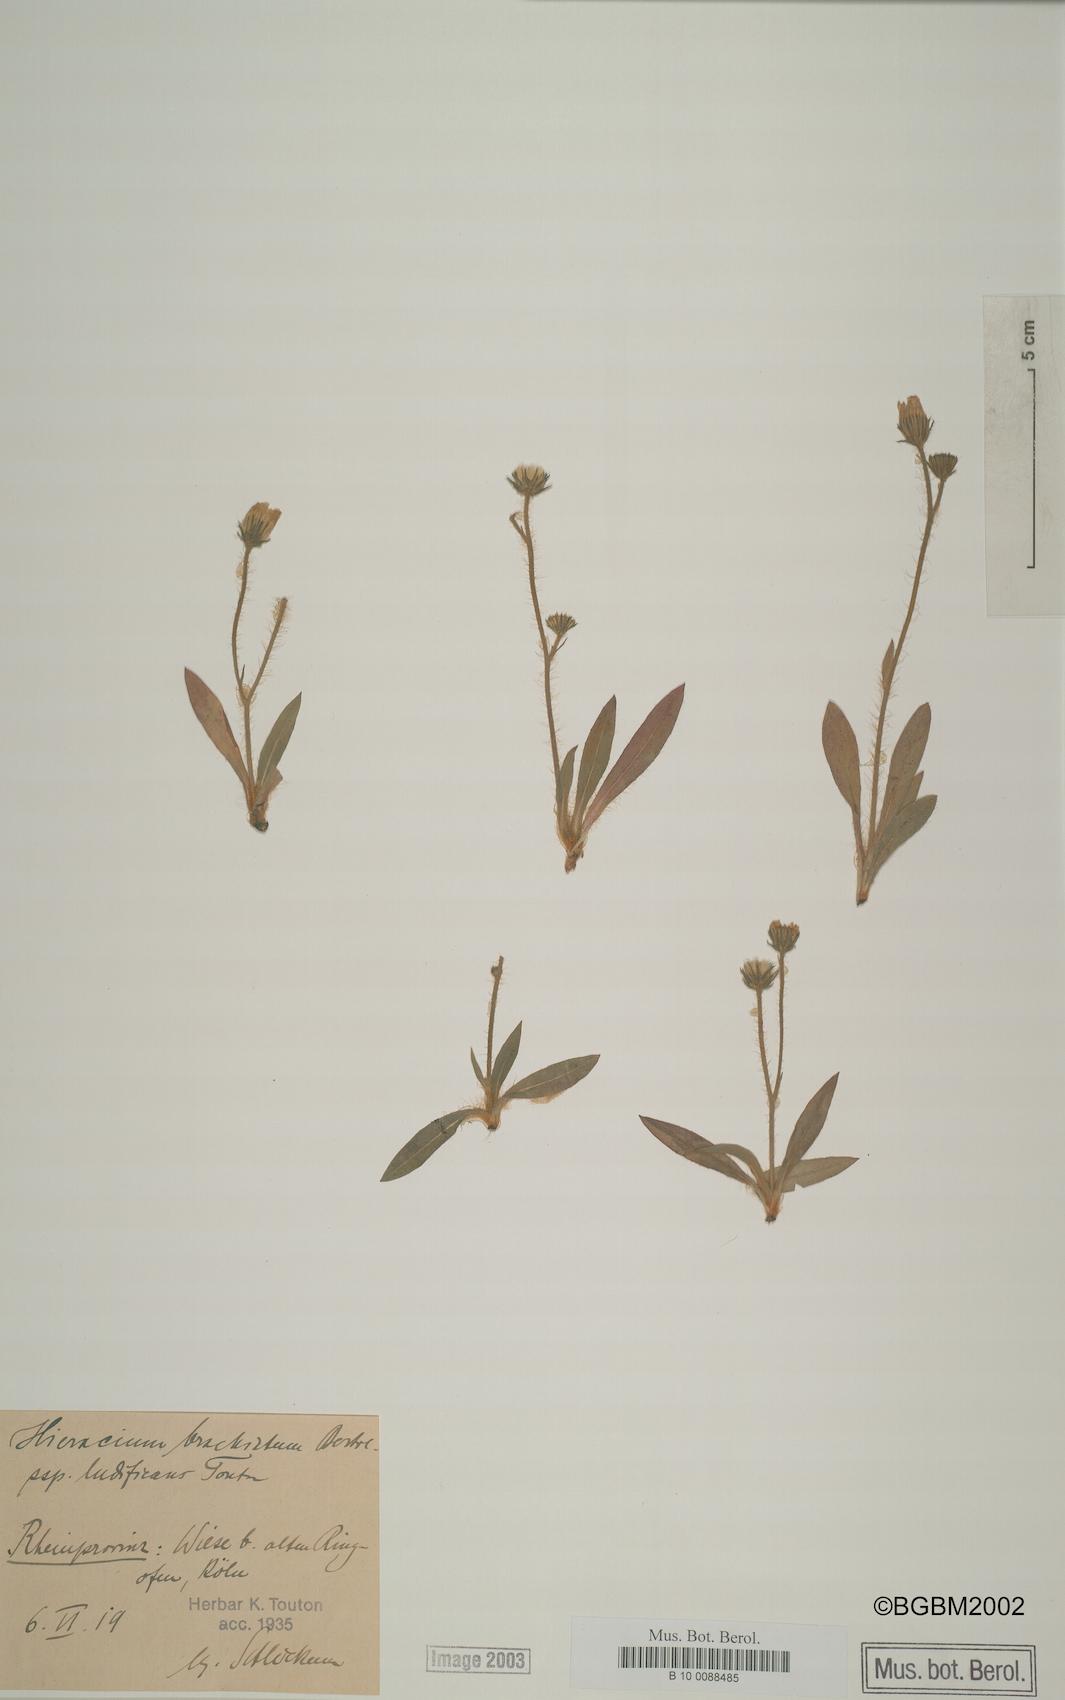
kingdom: Plantae
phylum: Tracheophyta
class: Magnoliopsida
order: Asterales
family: Asteraceae
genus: Pilosella
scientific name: Pilosella acutifolia
